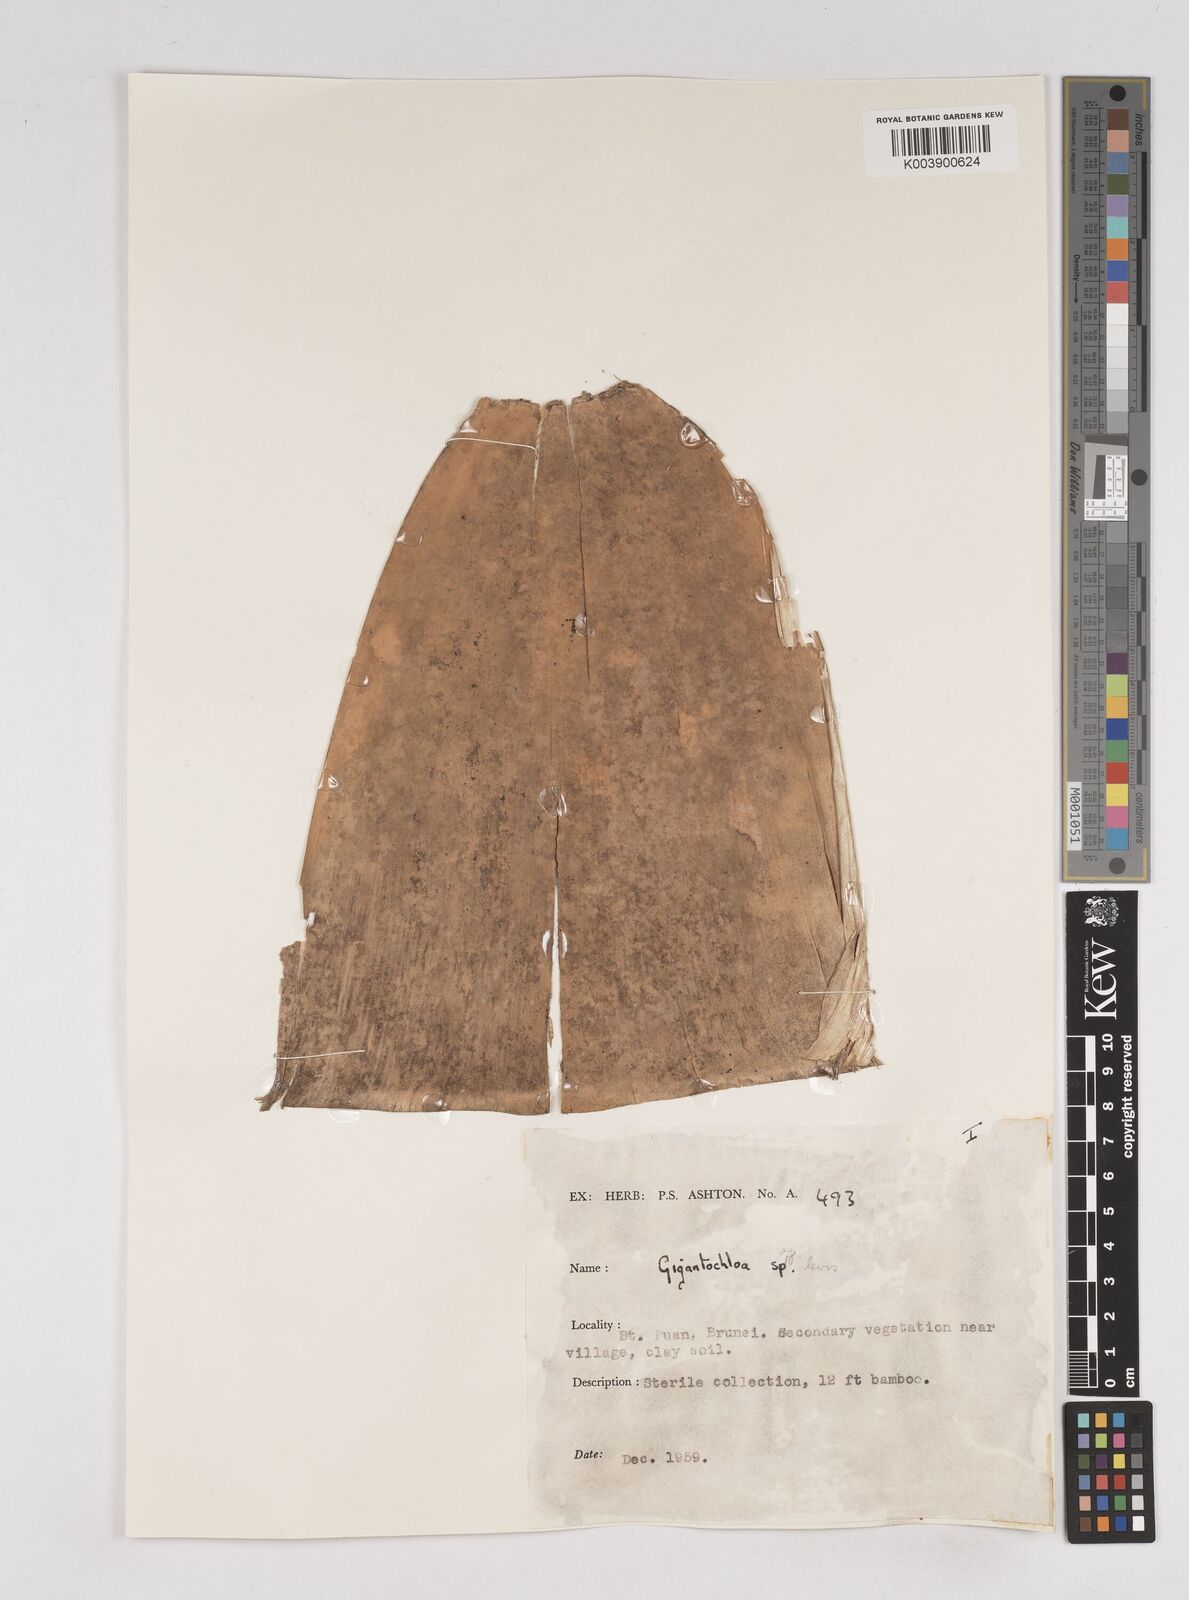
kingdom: Plantae
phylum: Tracheophyta
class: Liliopsida
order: Poales
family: Poaceae
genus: Gigantochloa
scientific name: Gigantochloa
